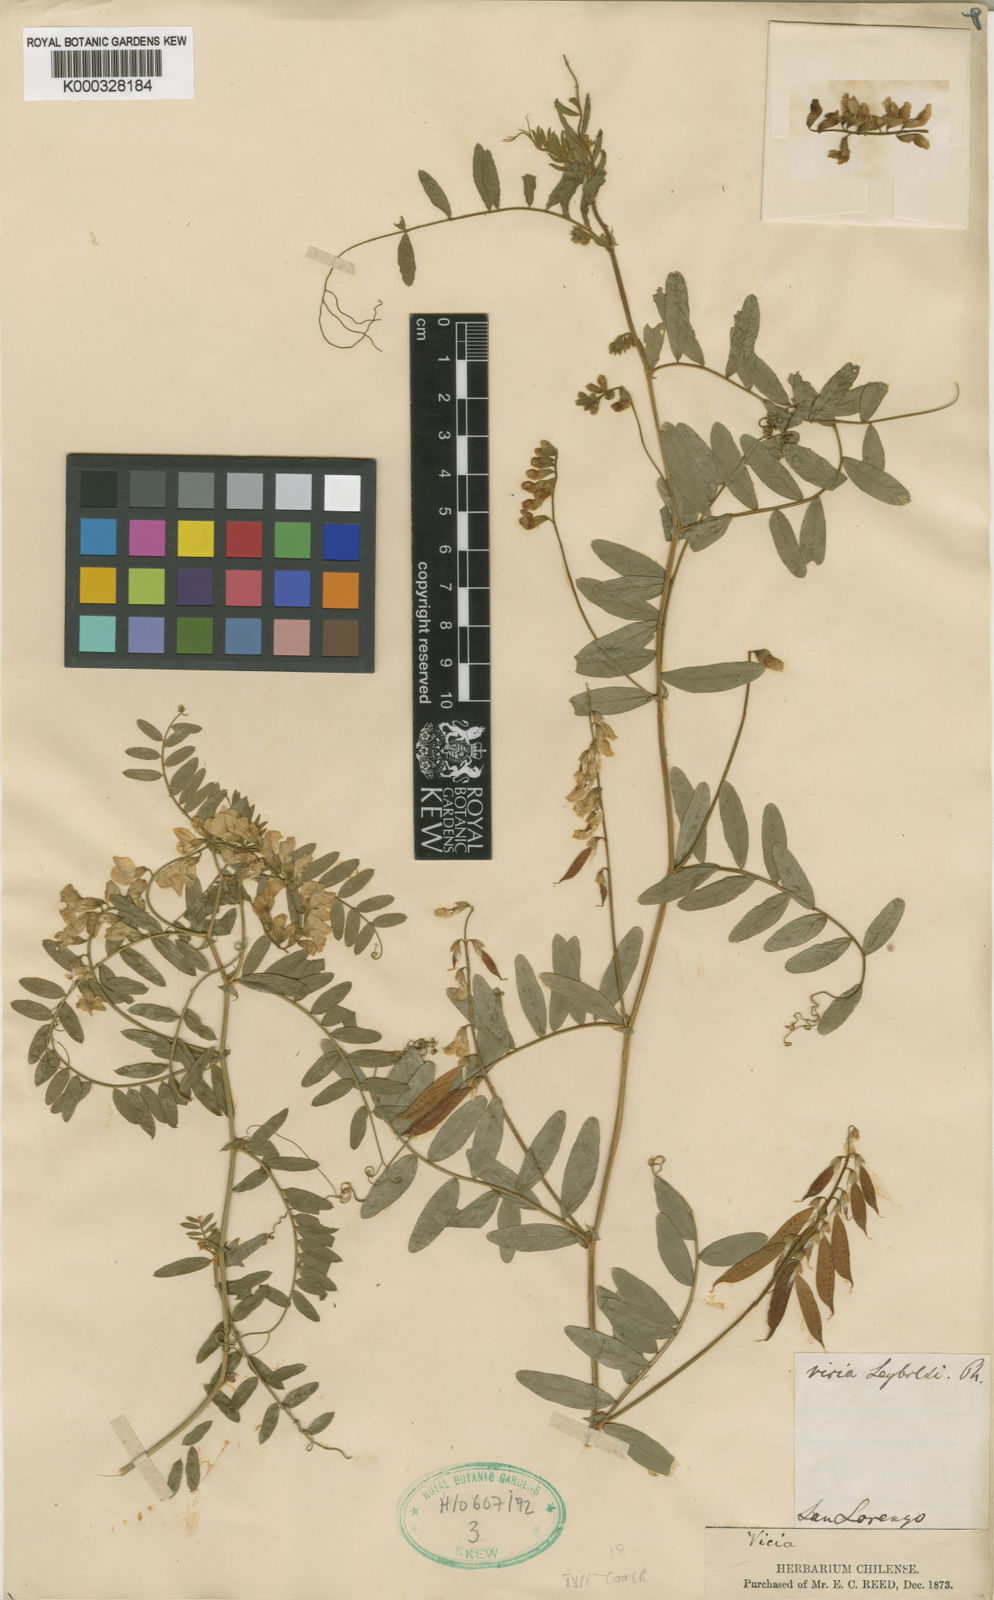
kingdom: Plantae
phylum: Tracheophyta
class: Magnoliopsida
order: Fabales
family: Fabaceae
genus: Vicia
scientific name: Vicia
